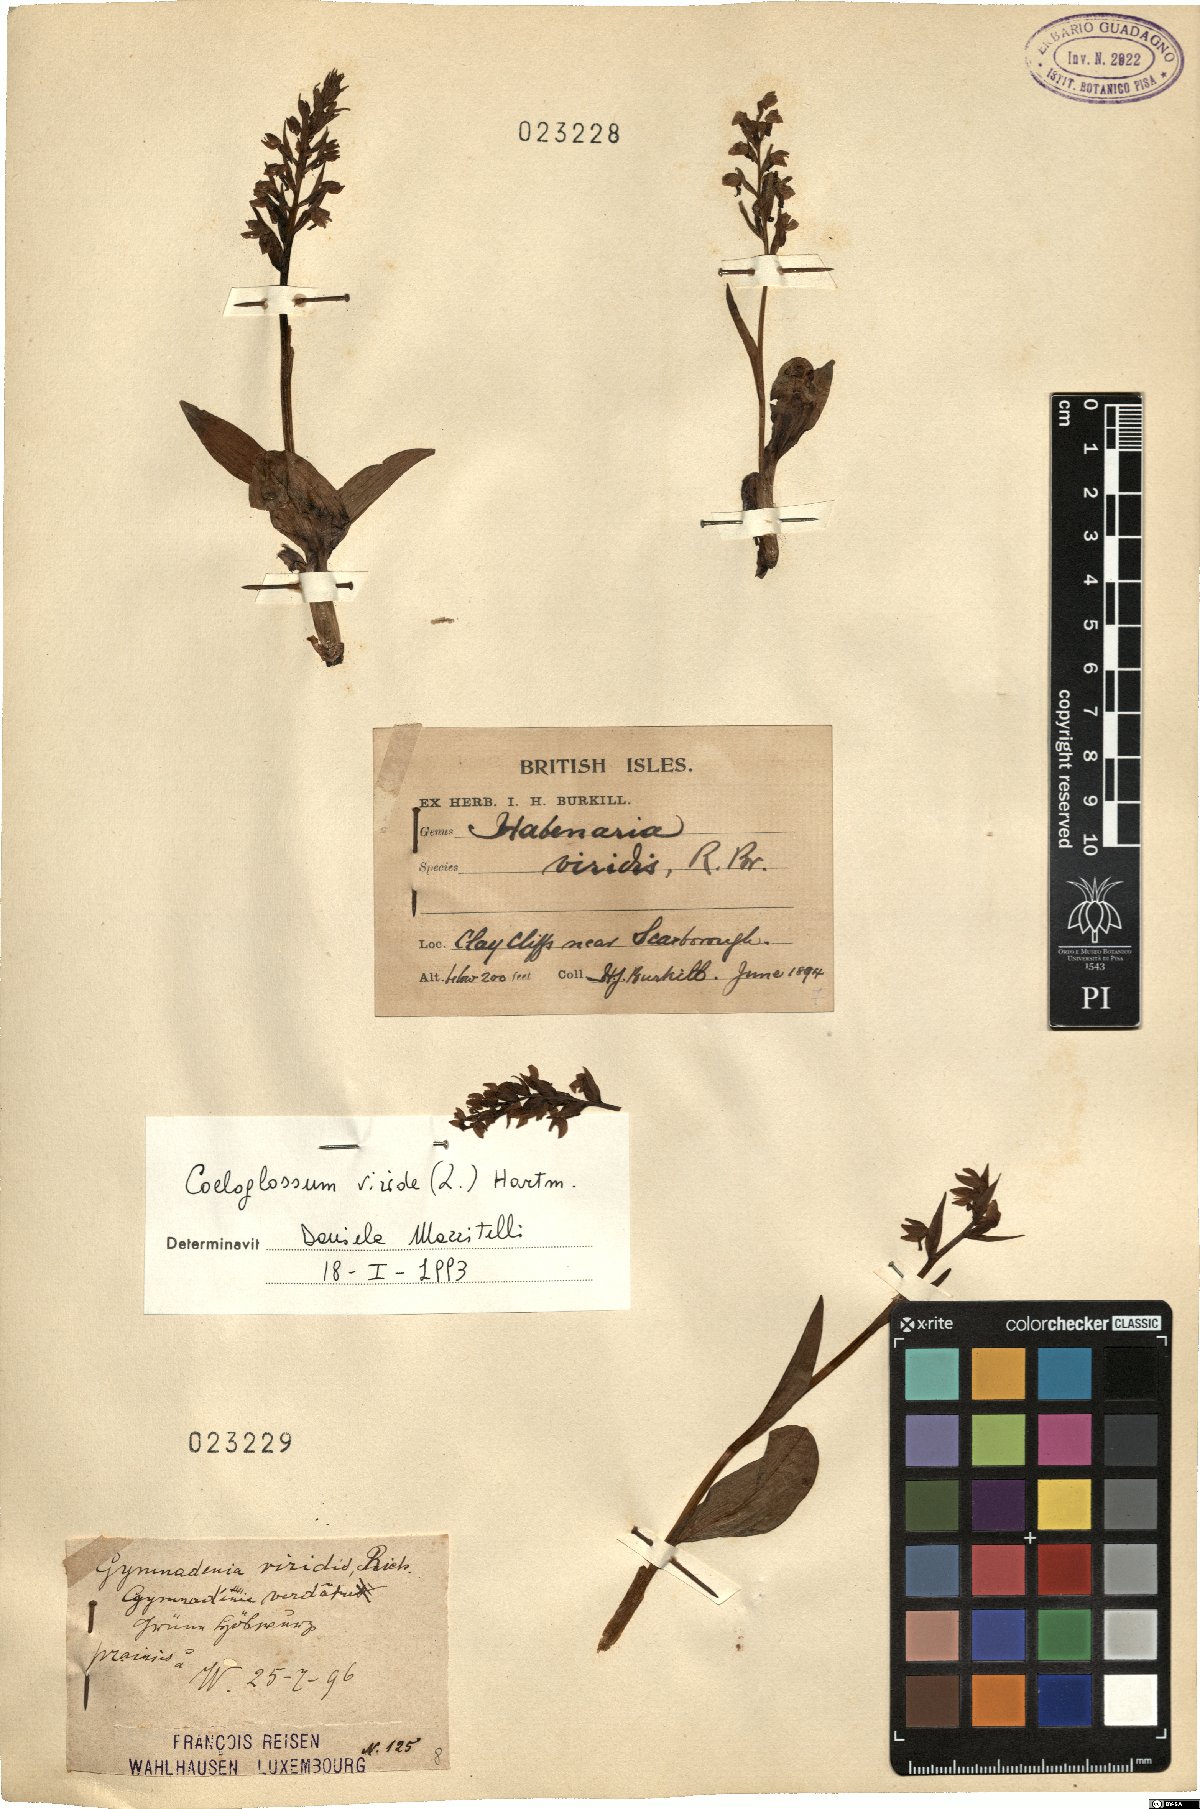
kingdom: Plantae
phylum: Tracheophyta
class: Liliopsida
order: Asparagales
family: Orchidaceae
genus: Dactylorhiza
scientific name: Dactylorhiza viridis
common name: Longbract frog orchid
